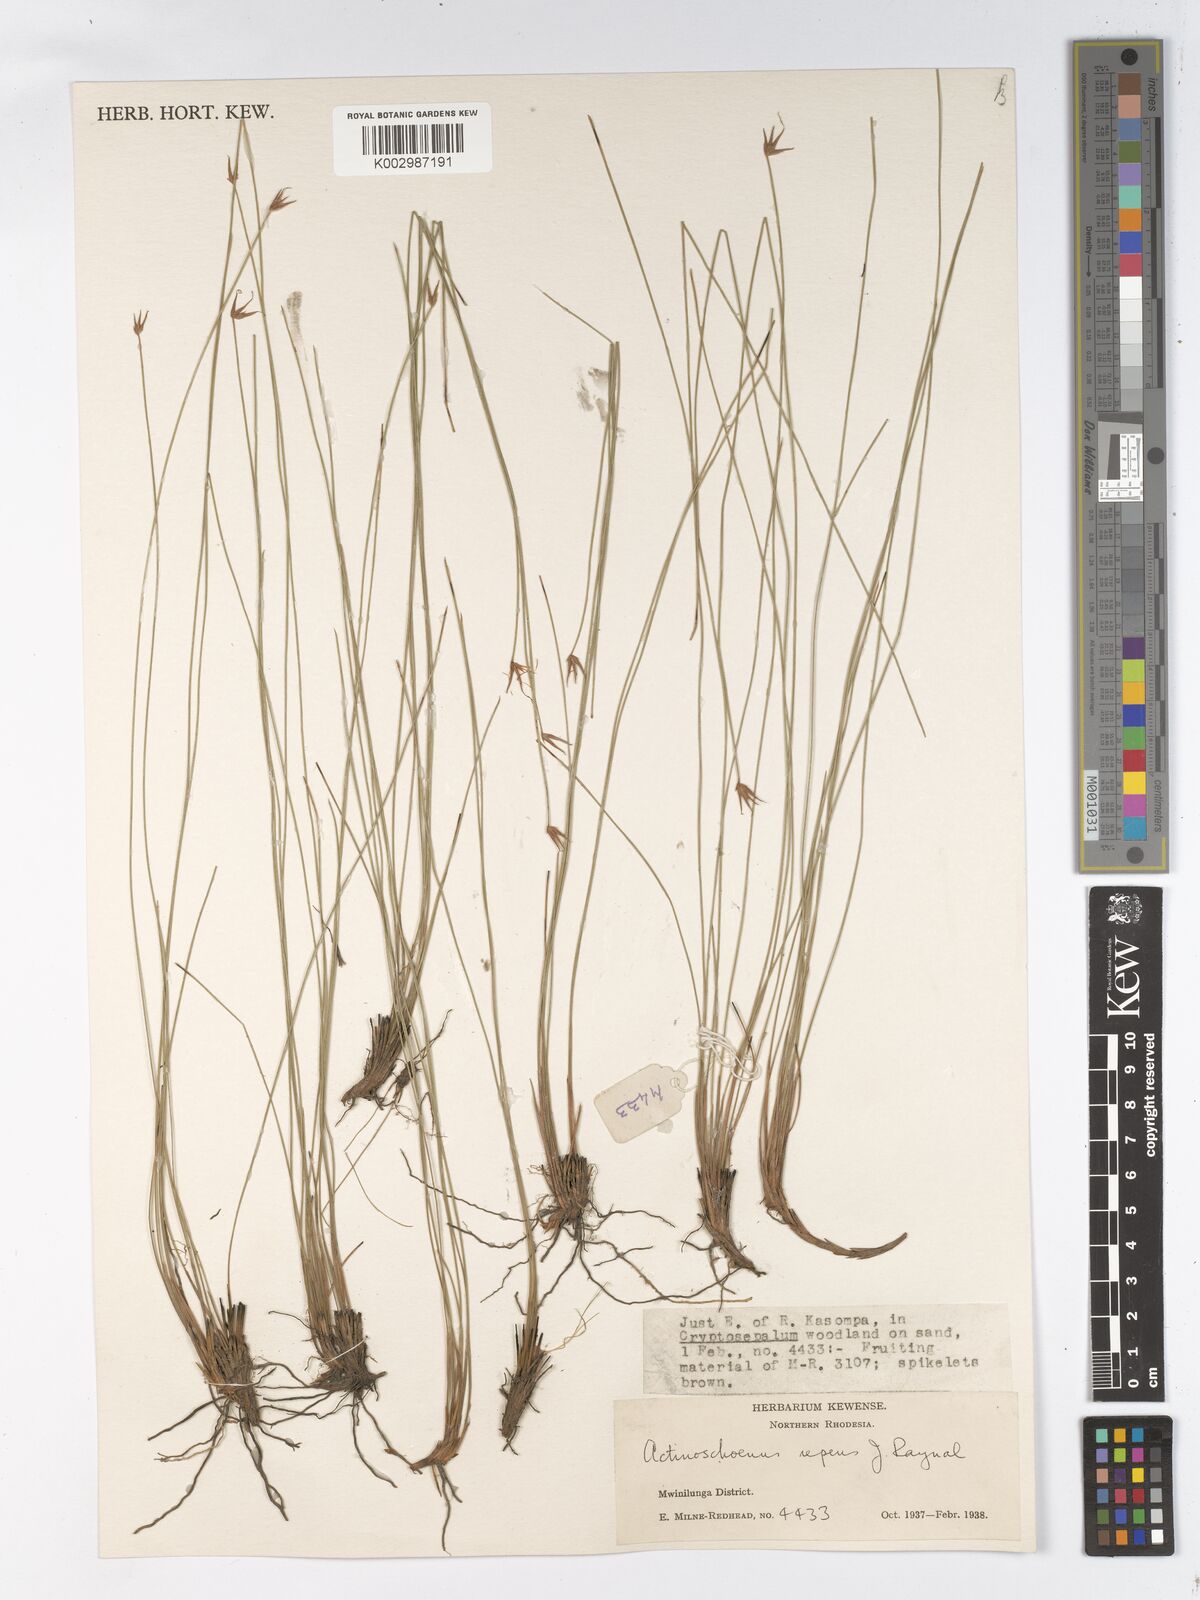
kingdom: Plantae
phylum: Tracheophyta
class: Liliopsida
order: Poales
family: Cyperaceae
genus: Actinoschoenus
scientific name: Actinoschoenus repens
